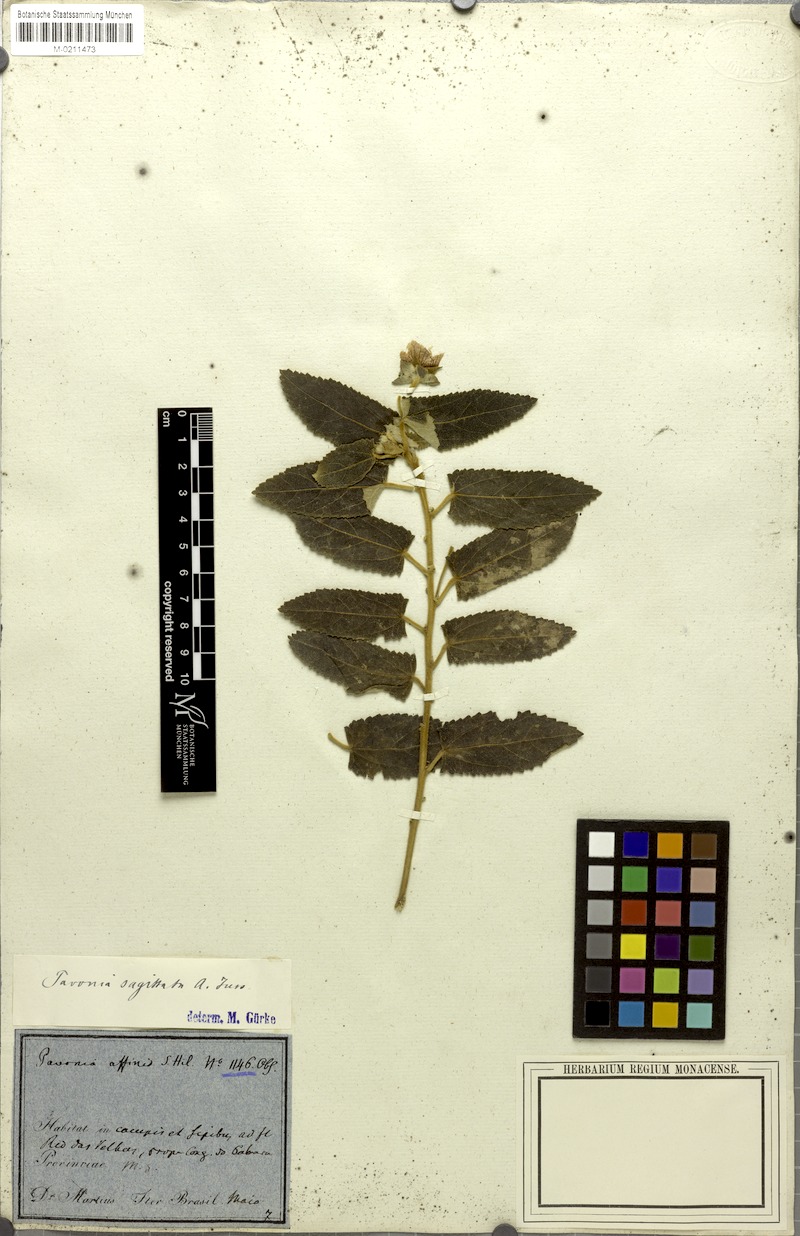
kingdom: Plantae
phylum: Tracheophyta
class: Magnoliopsida
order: Malvales
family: Malvaceae
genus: Pavonia
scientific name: Pavonia sagittata
